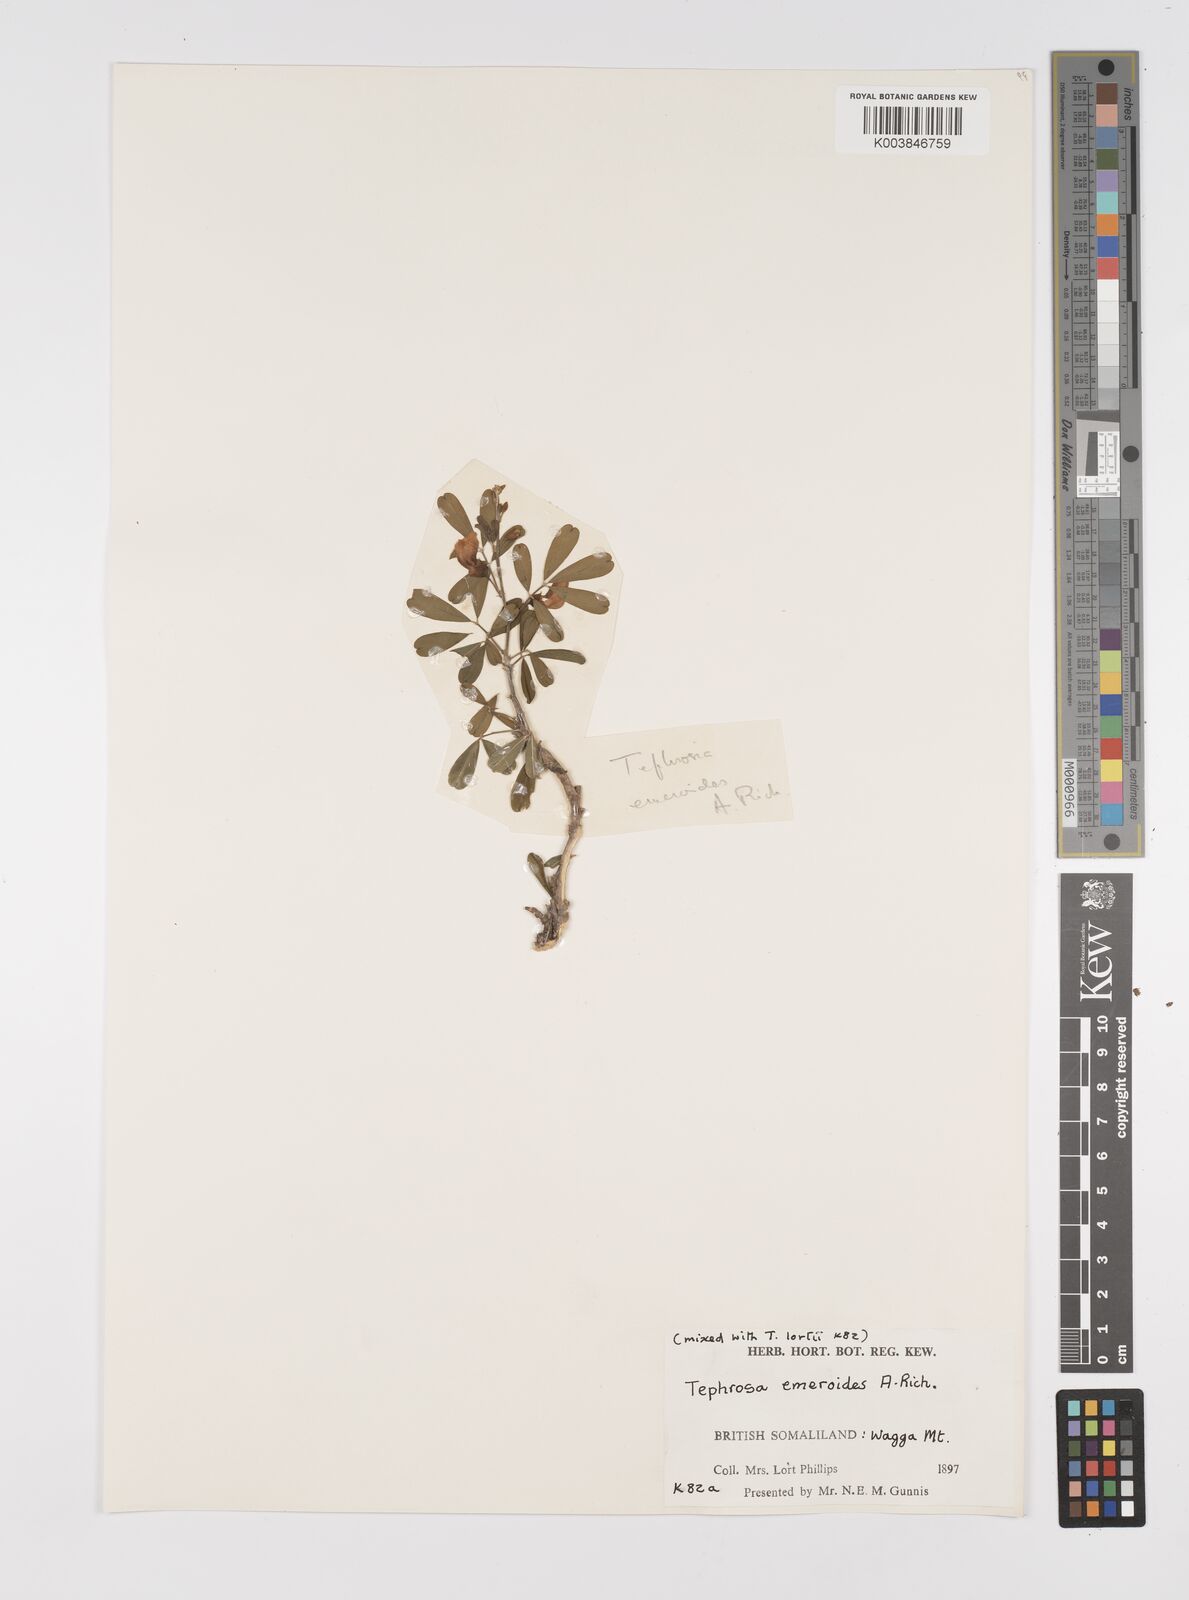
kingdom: Plantae
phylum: Tracheophyta
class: Magnoliopsida
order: Fabales
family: Fabaceae
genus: Tephrosia
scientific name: Tephrosia emeroides
